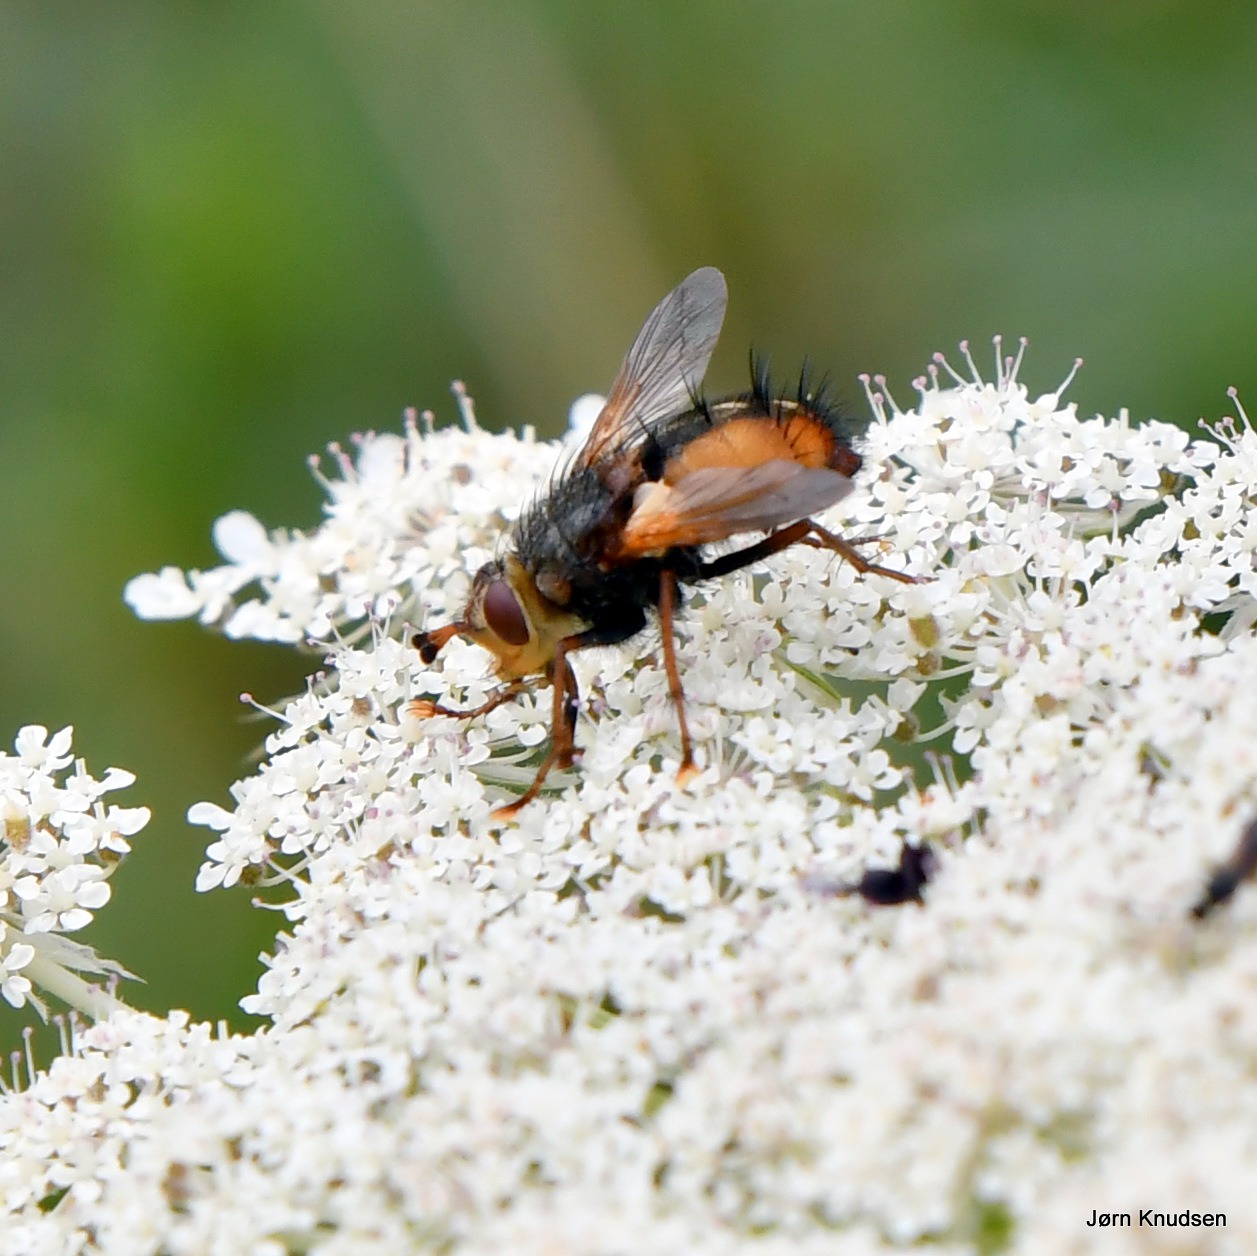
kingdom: Animalia
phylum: Arthropoda
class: Insecta
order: Diptera
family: Tachinidae
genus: Tachina
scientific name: Tachina fera
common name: Mellemfluen oskar
